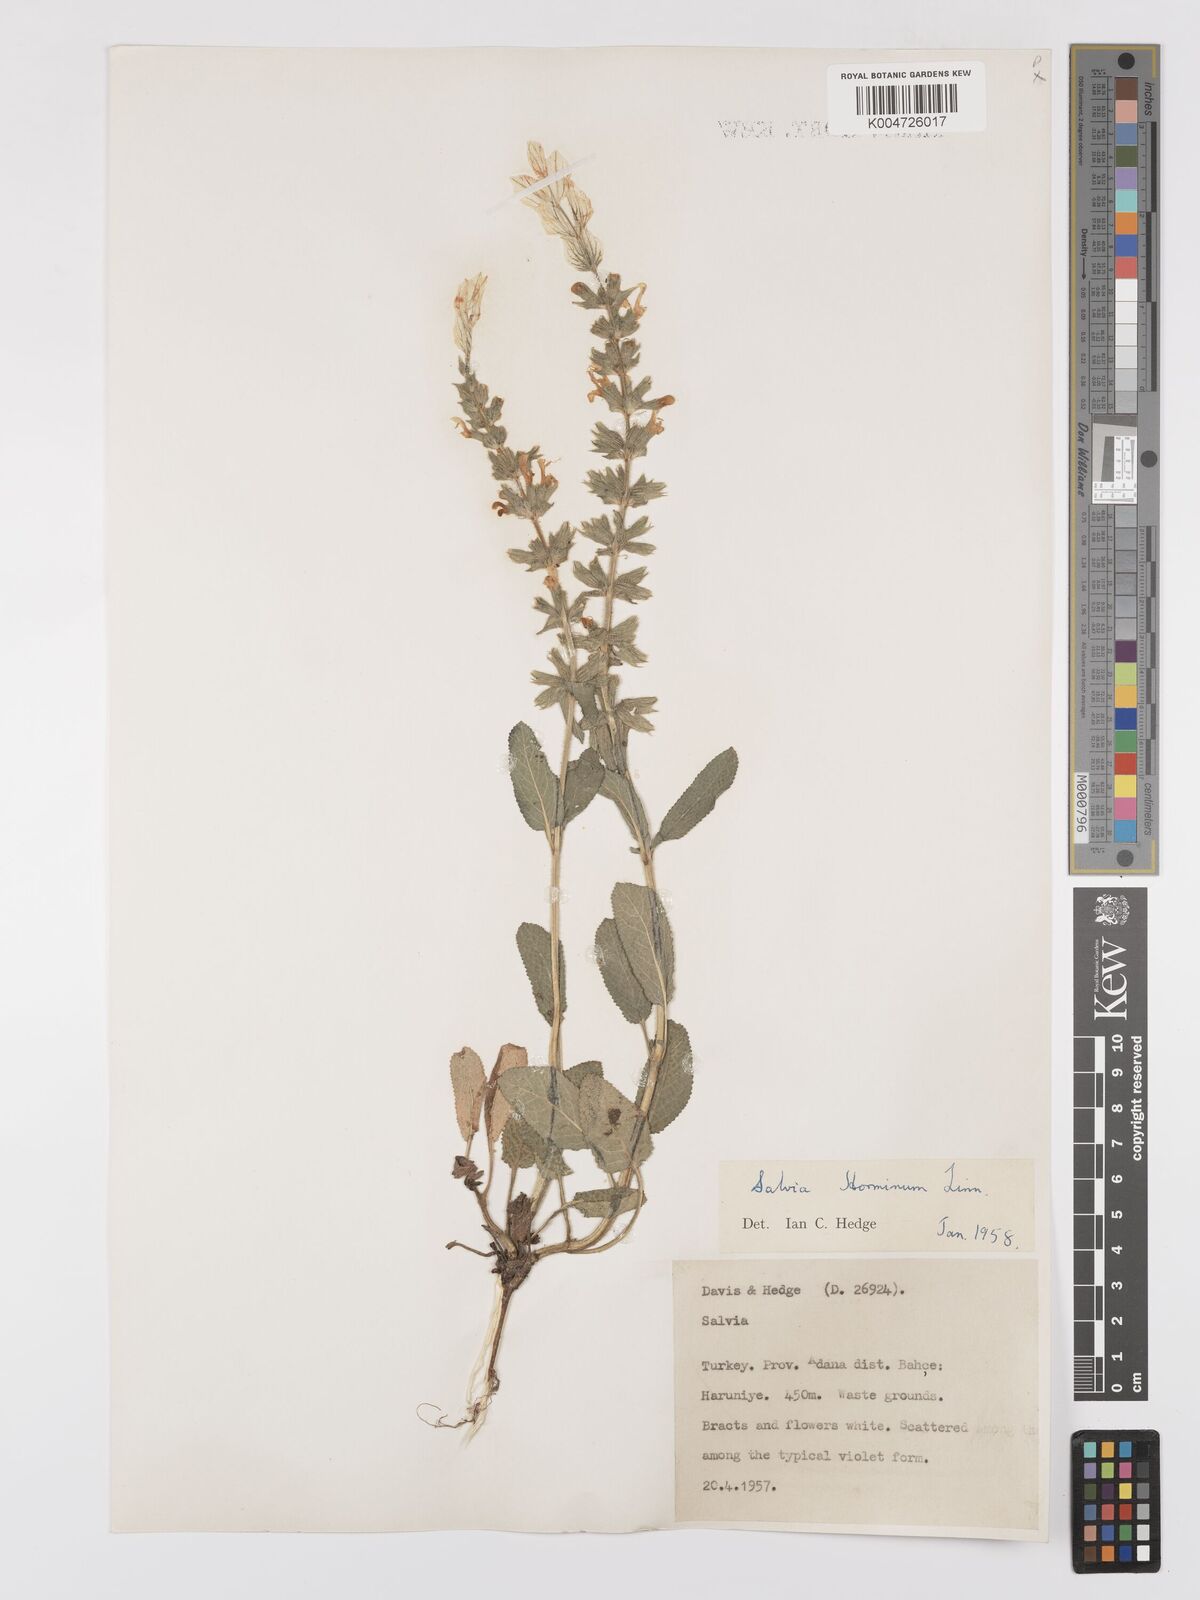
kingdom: Plantae
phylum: Tracheophyta
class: Magnoliopsida
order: Lamiales
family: Lamiaceae
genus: Salvia
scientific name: Salvia viridis
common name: Annual clary
